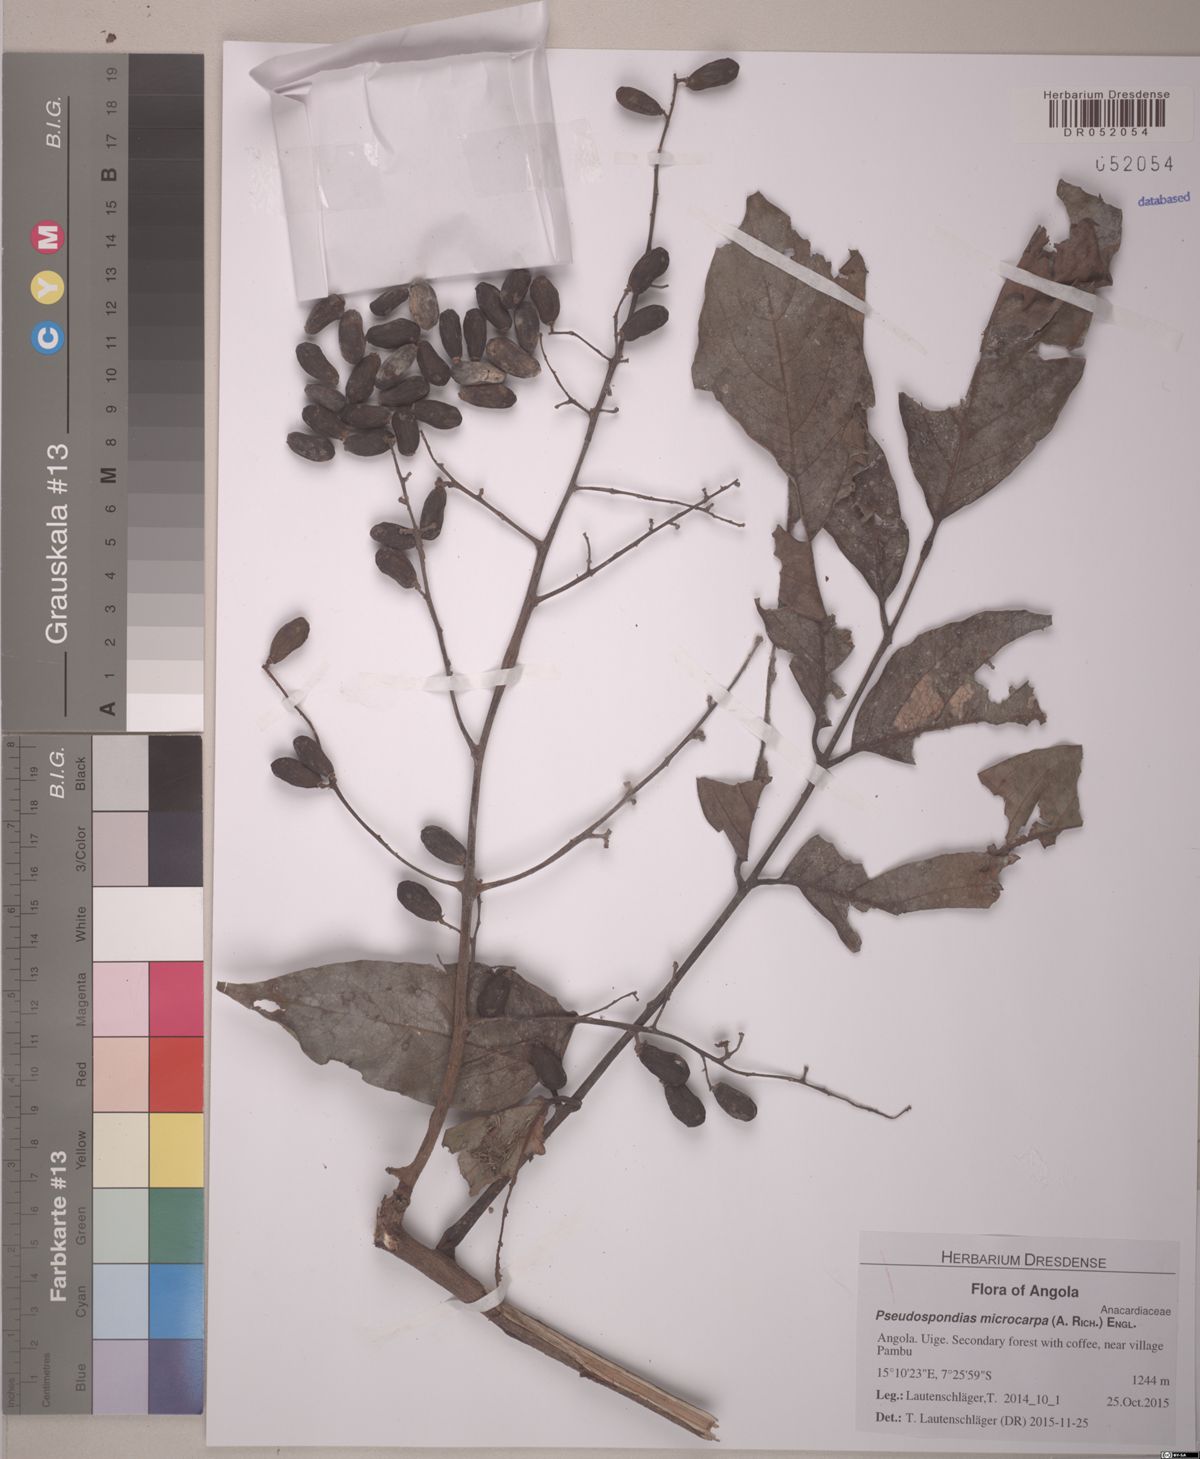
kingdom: Plantae
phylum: Tracheophyta
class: Magnoliopsida
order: Sapindales
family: Anacardiaceae
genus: Pseudospondias
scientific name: Pseudospondias microcarpa
